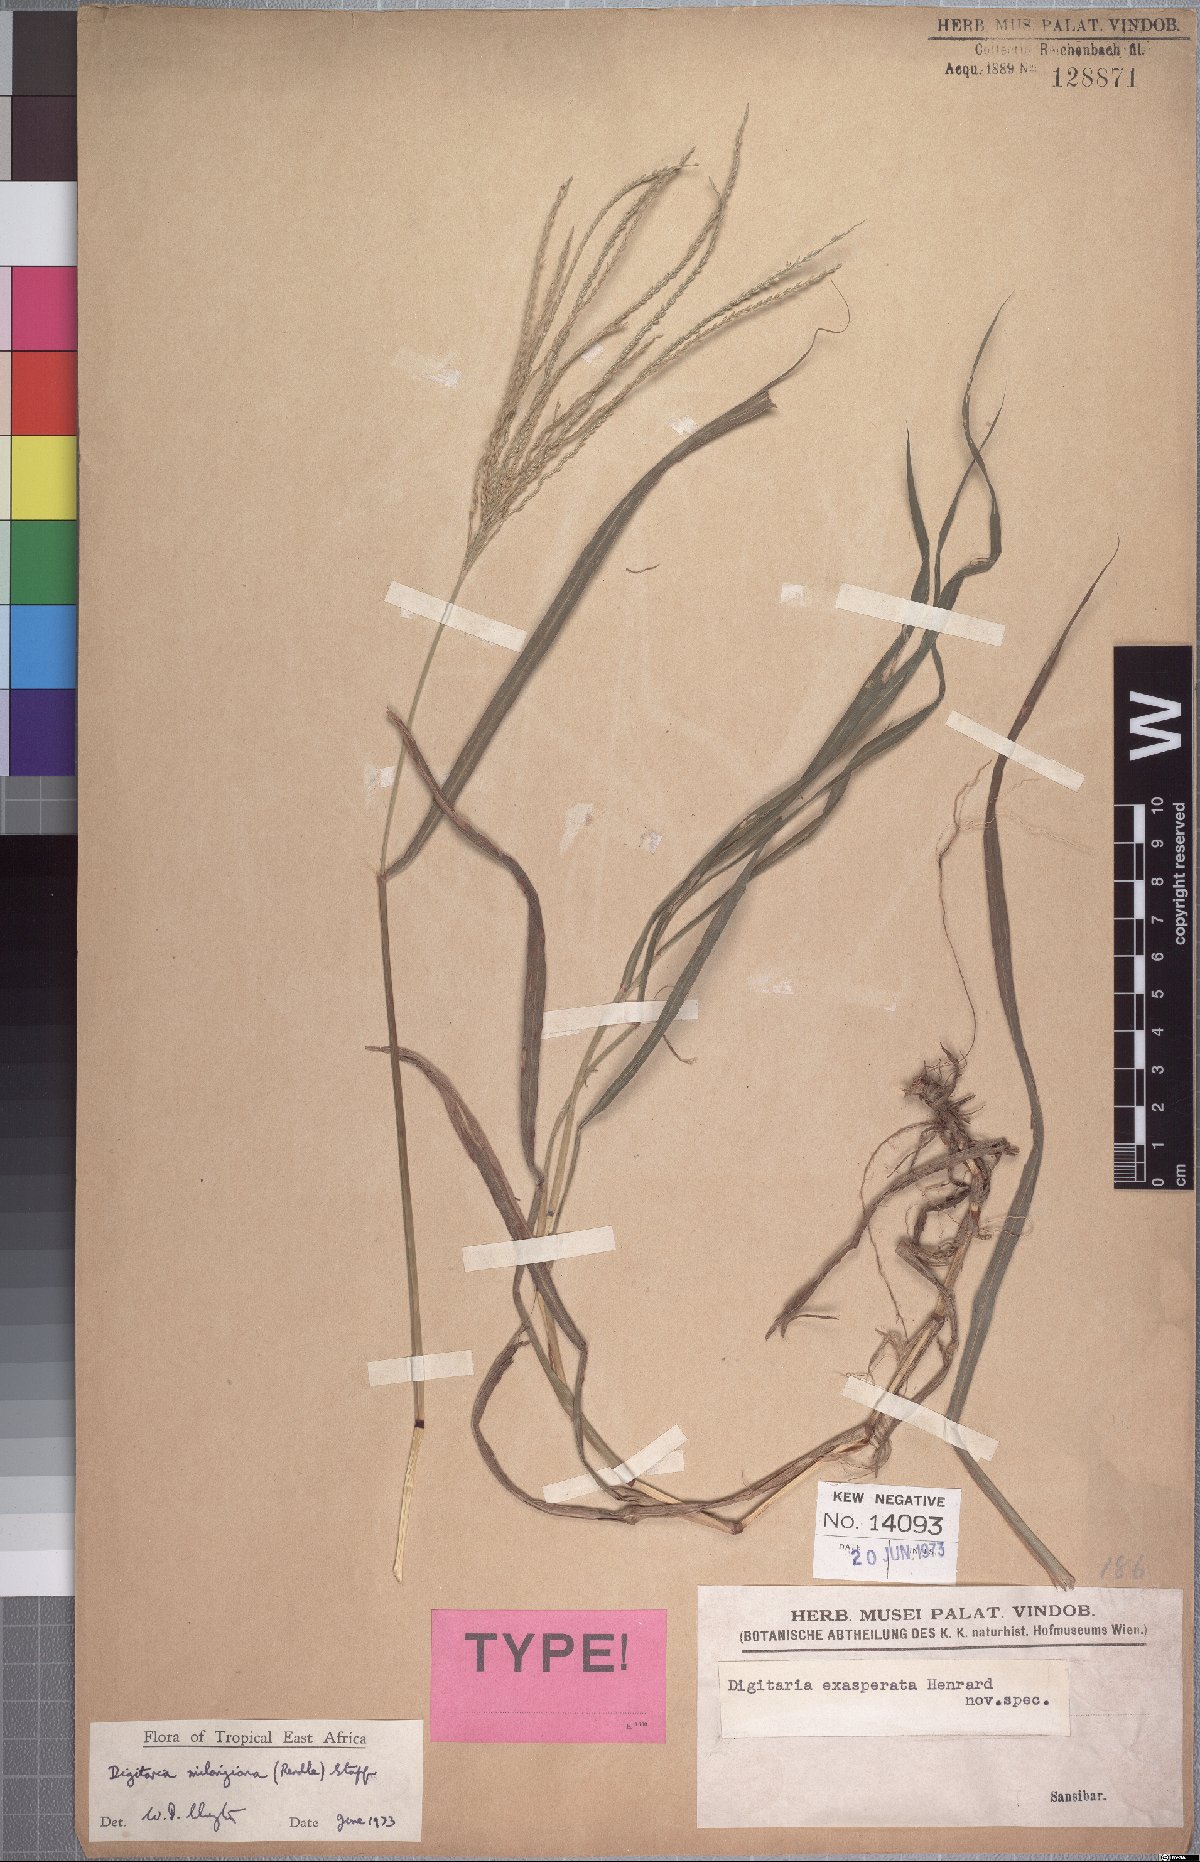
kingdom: Plantae
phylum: Tracheophyta
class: Liliopsida
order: Poales
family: Poaceae
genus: Digitaria
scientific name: Digitaria milanjiana
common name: Madagascar crabgrass
